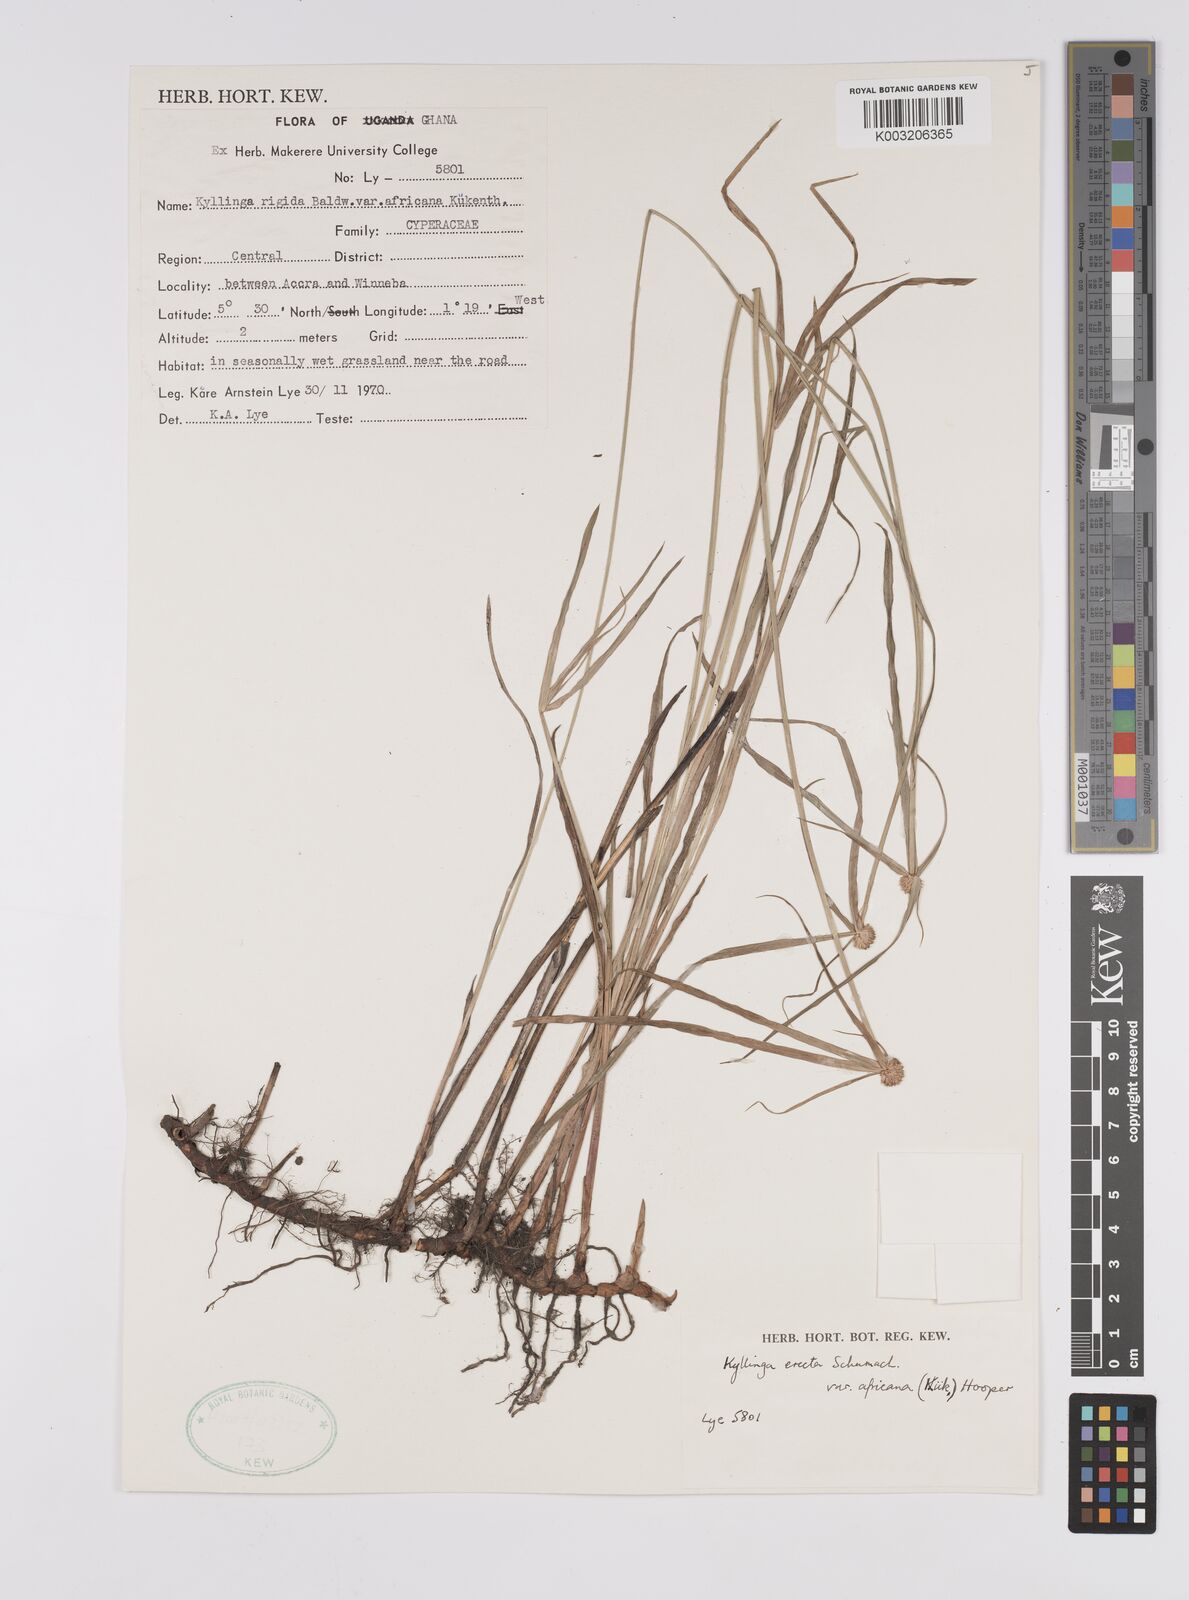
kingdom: Plantae
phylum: Tracheophyta
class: Liliopsida
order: Poales
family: Cyperaceae
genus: Cyperus
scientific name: Cyperus erectus
